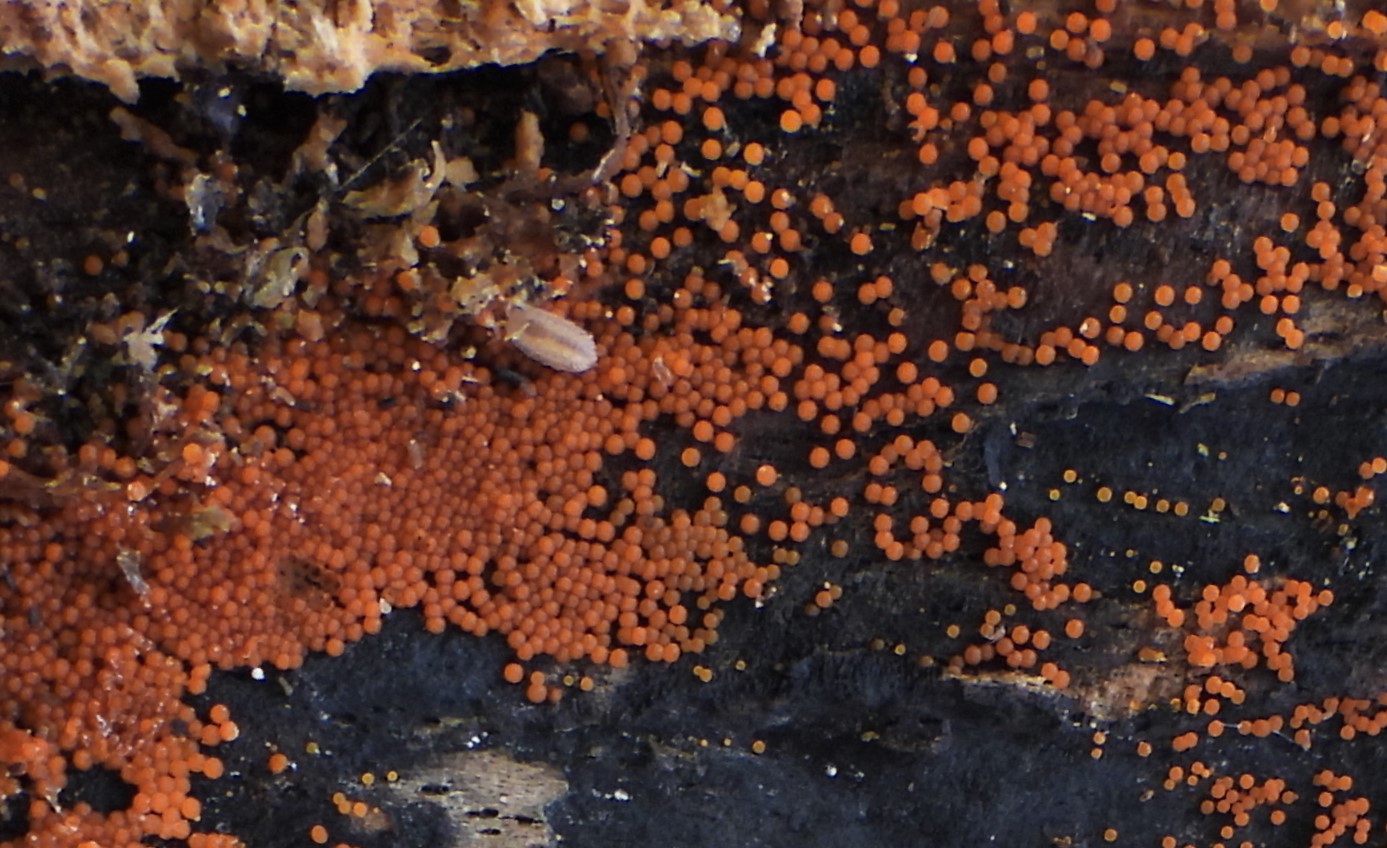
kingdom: Fungi
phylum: Ascomycota
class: Sordariomycetes
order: Hypocreales
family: Nectriaceae
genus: Hydropisphaera
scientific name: Hydropisphaera peziza
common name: skålformet gyldenkerne
